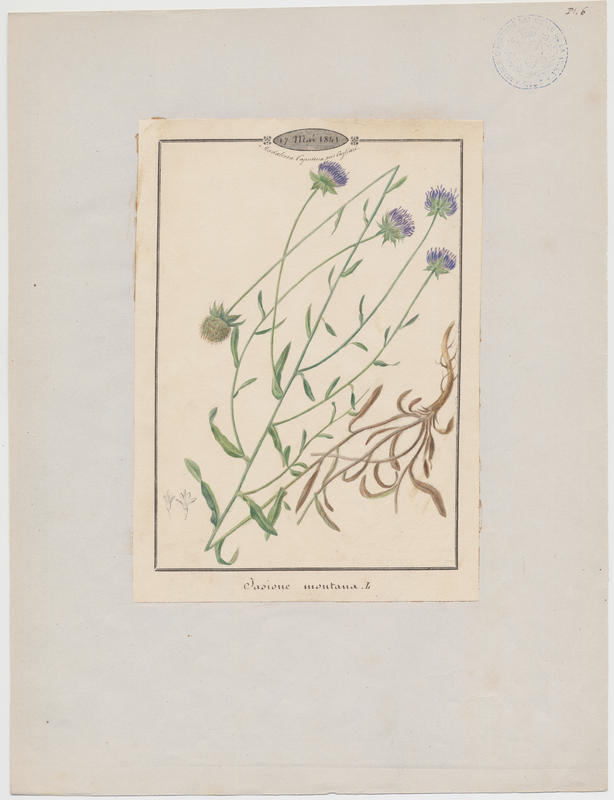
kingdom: Plantae
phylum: Tracheophyta
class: Magnoliopsida
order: Asterales
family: Campanulaceae
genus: Jasione
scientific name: Jasione montana
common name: Sheep's-bit
